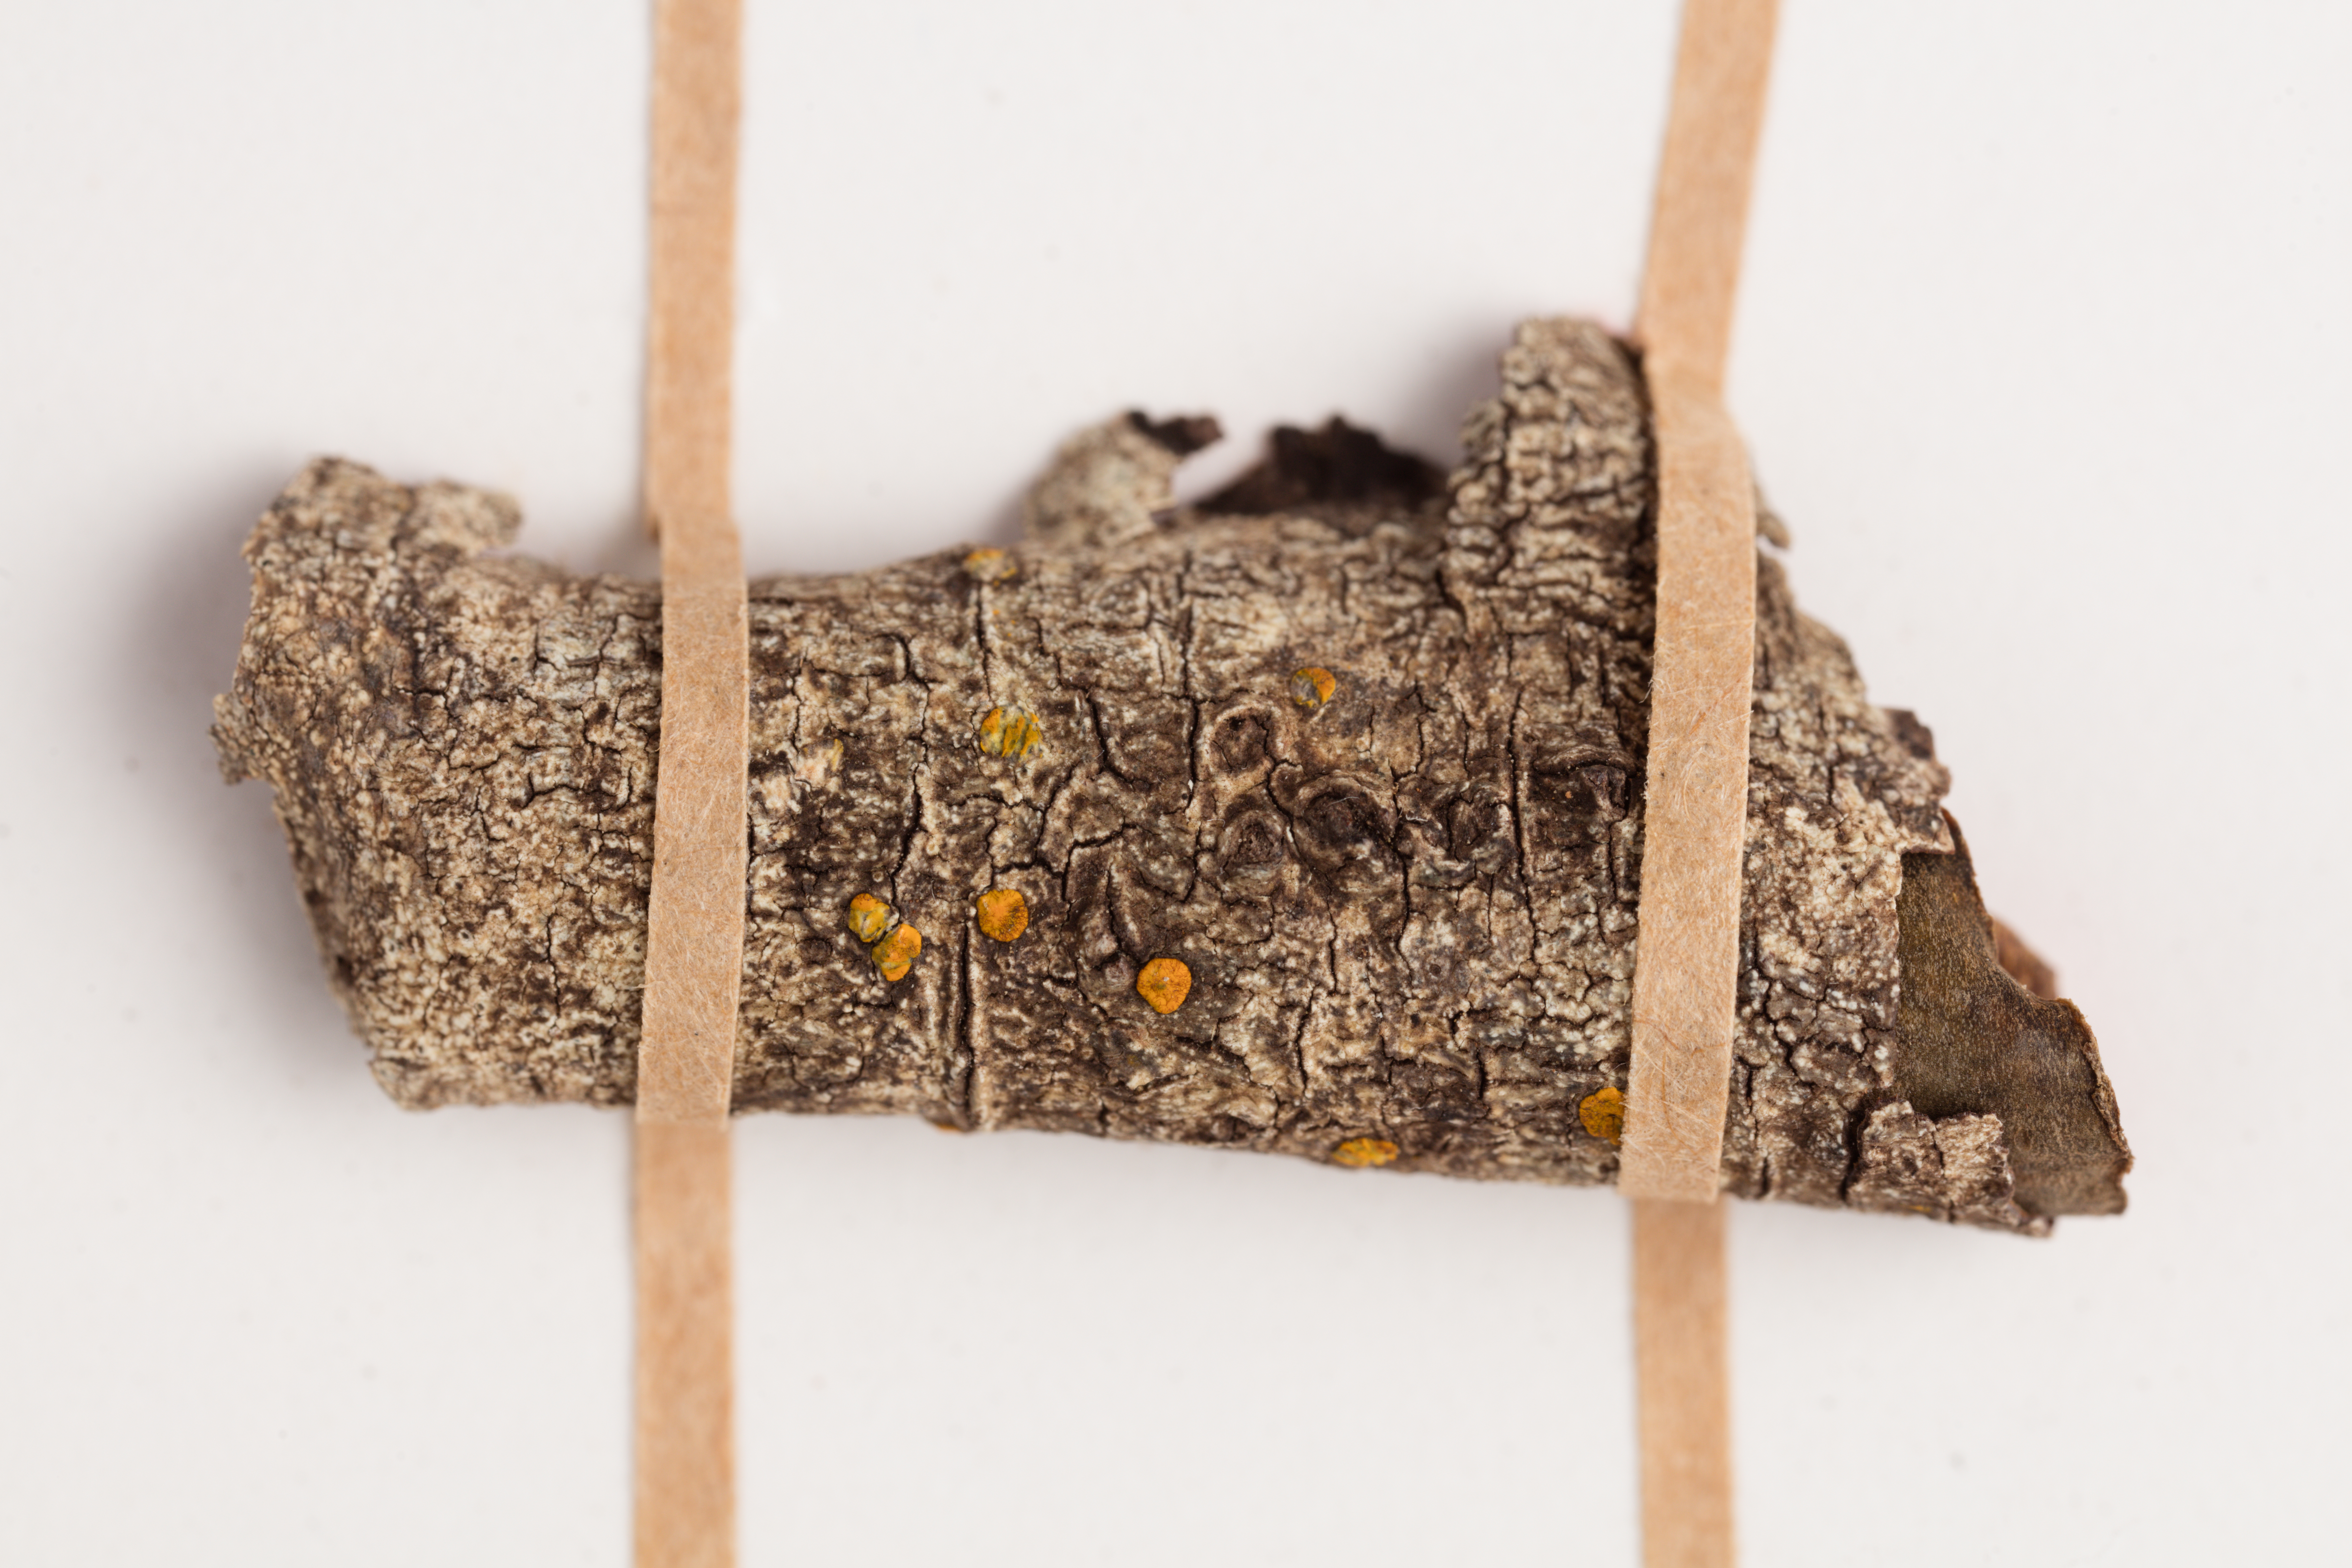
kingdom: Fungi
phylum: Ascomycota
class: Lecanoromycetes
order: Lecanorales
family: Ramalinaceae
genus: Stirtoniella
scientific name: Stirtoniella kelica
